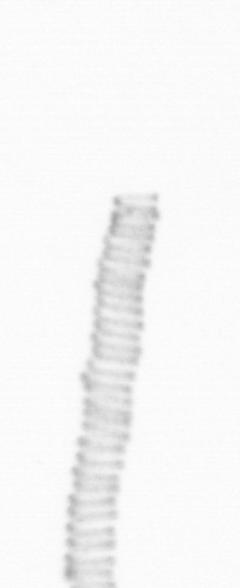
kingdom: Chromista
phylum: Ochrophyta
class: Bacillariophyceae
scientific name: Bacillariophyceae
